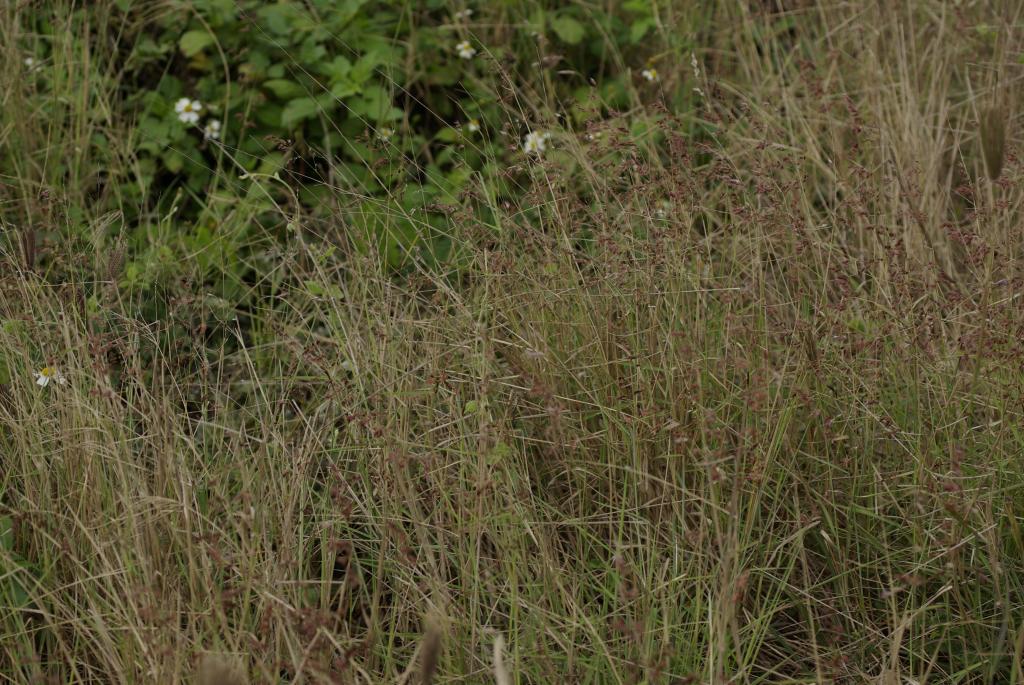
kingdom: Plantae
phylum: Tracheophyta
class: Liliopsida
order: Poales
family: Poaceae
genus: Melinis
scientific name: Melinis repens
